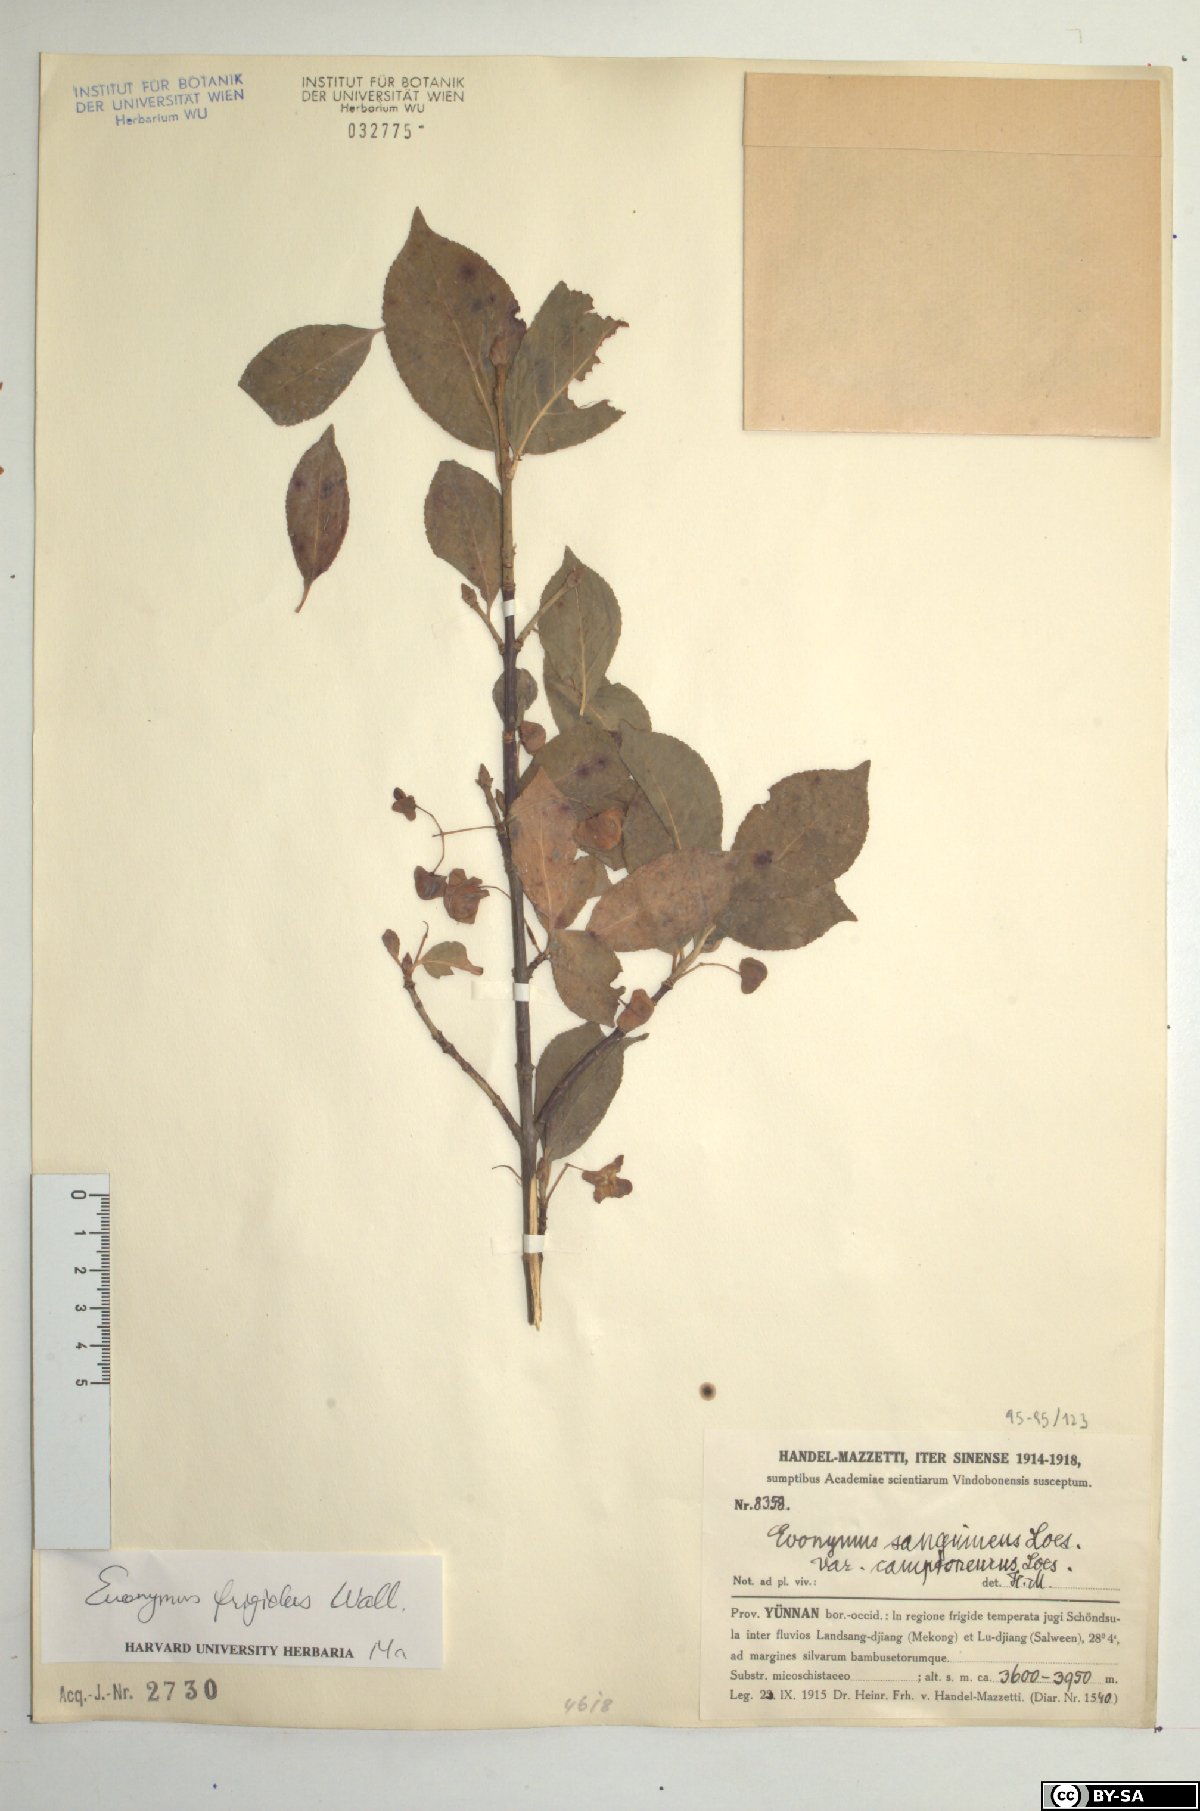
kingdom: Plantae
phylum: Tracheophyta
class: Magnoliopsida
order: Celastrales
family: Celastraceae
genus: Euonymus
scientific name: Euonymus frigidus
